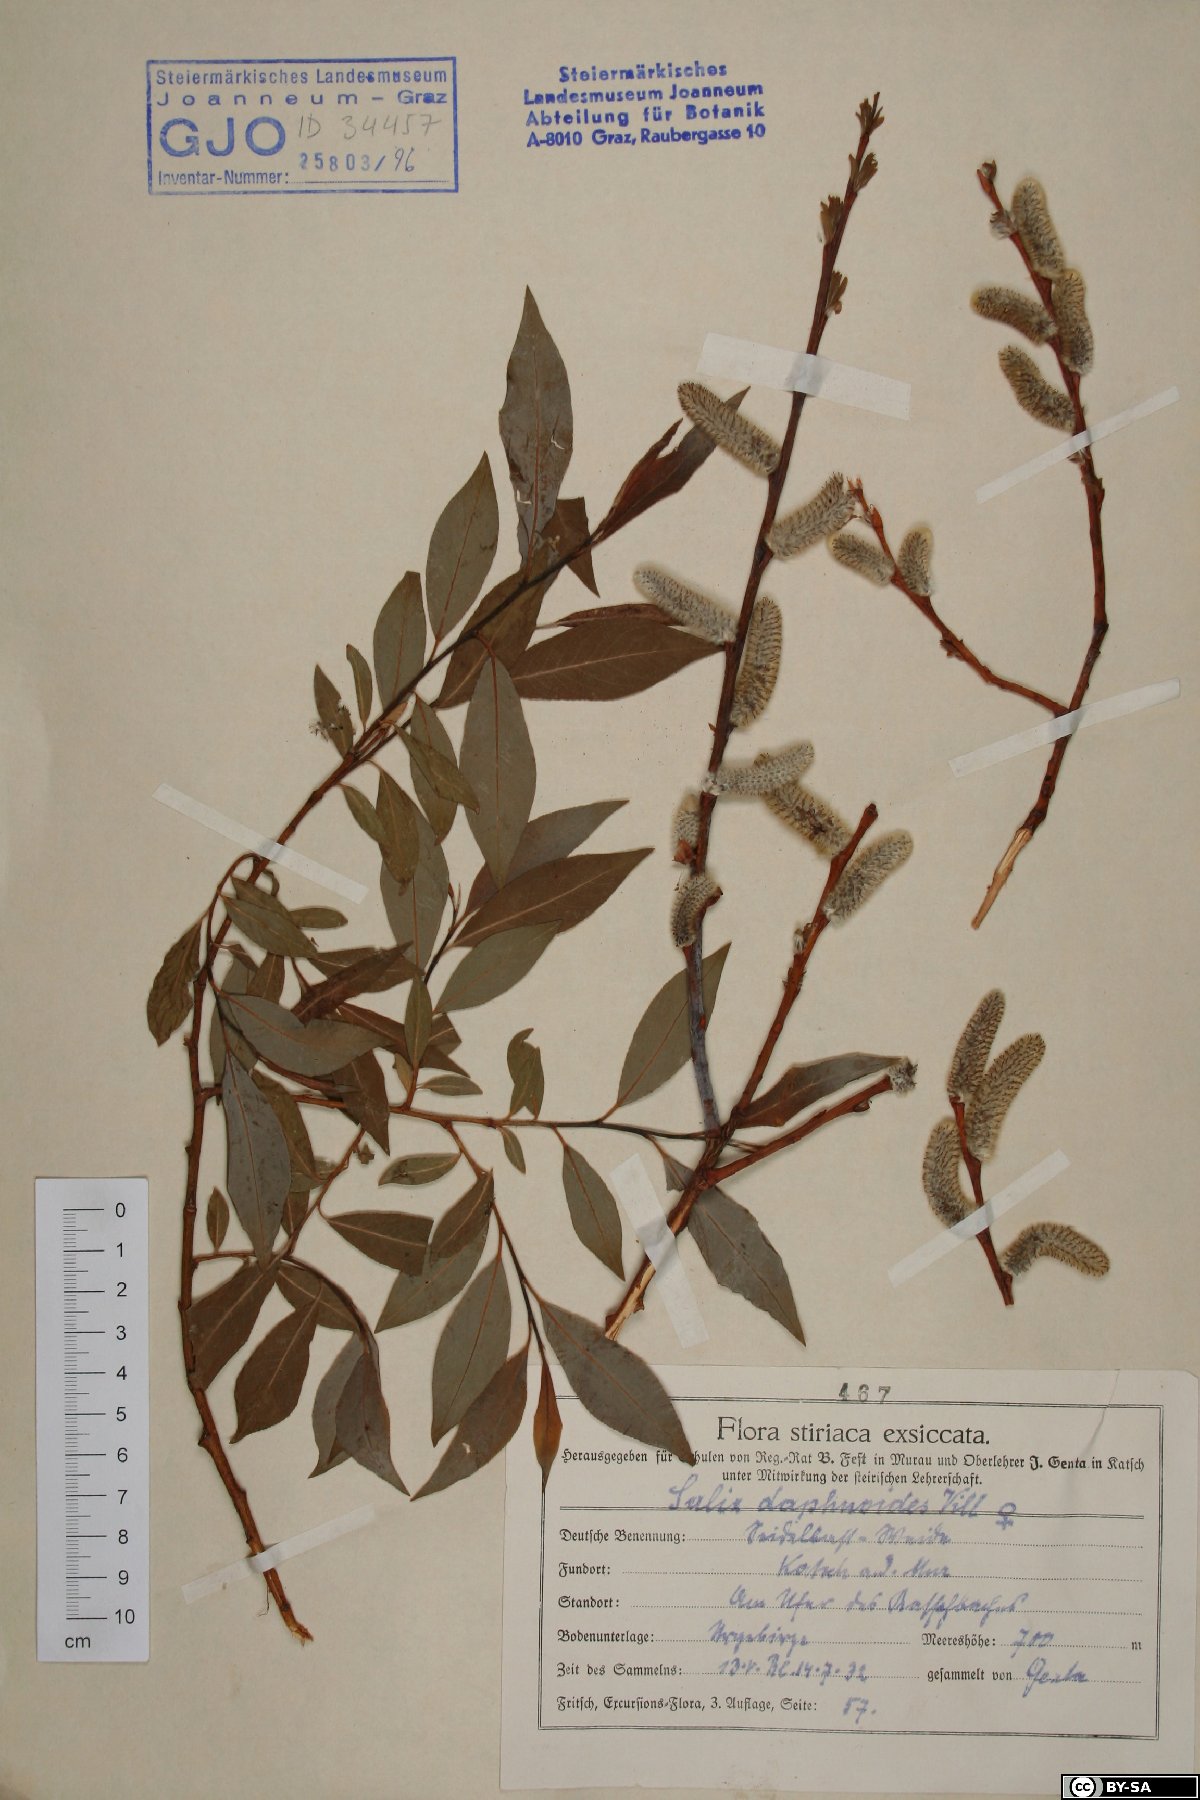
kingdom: Plantae
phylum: Tracheophyta
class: Magnoliopsida
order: Malpighiales
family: Salicaceae
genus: Salix
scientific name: Salix daphnoides
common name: European violet-willow
